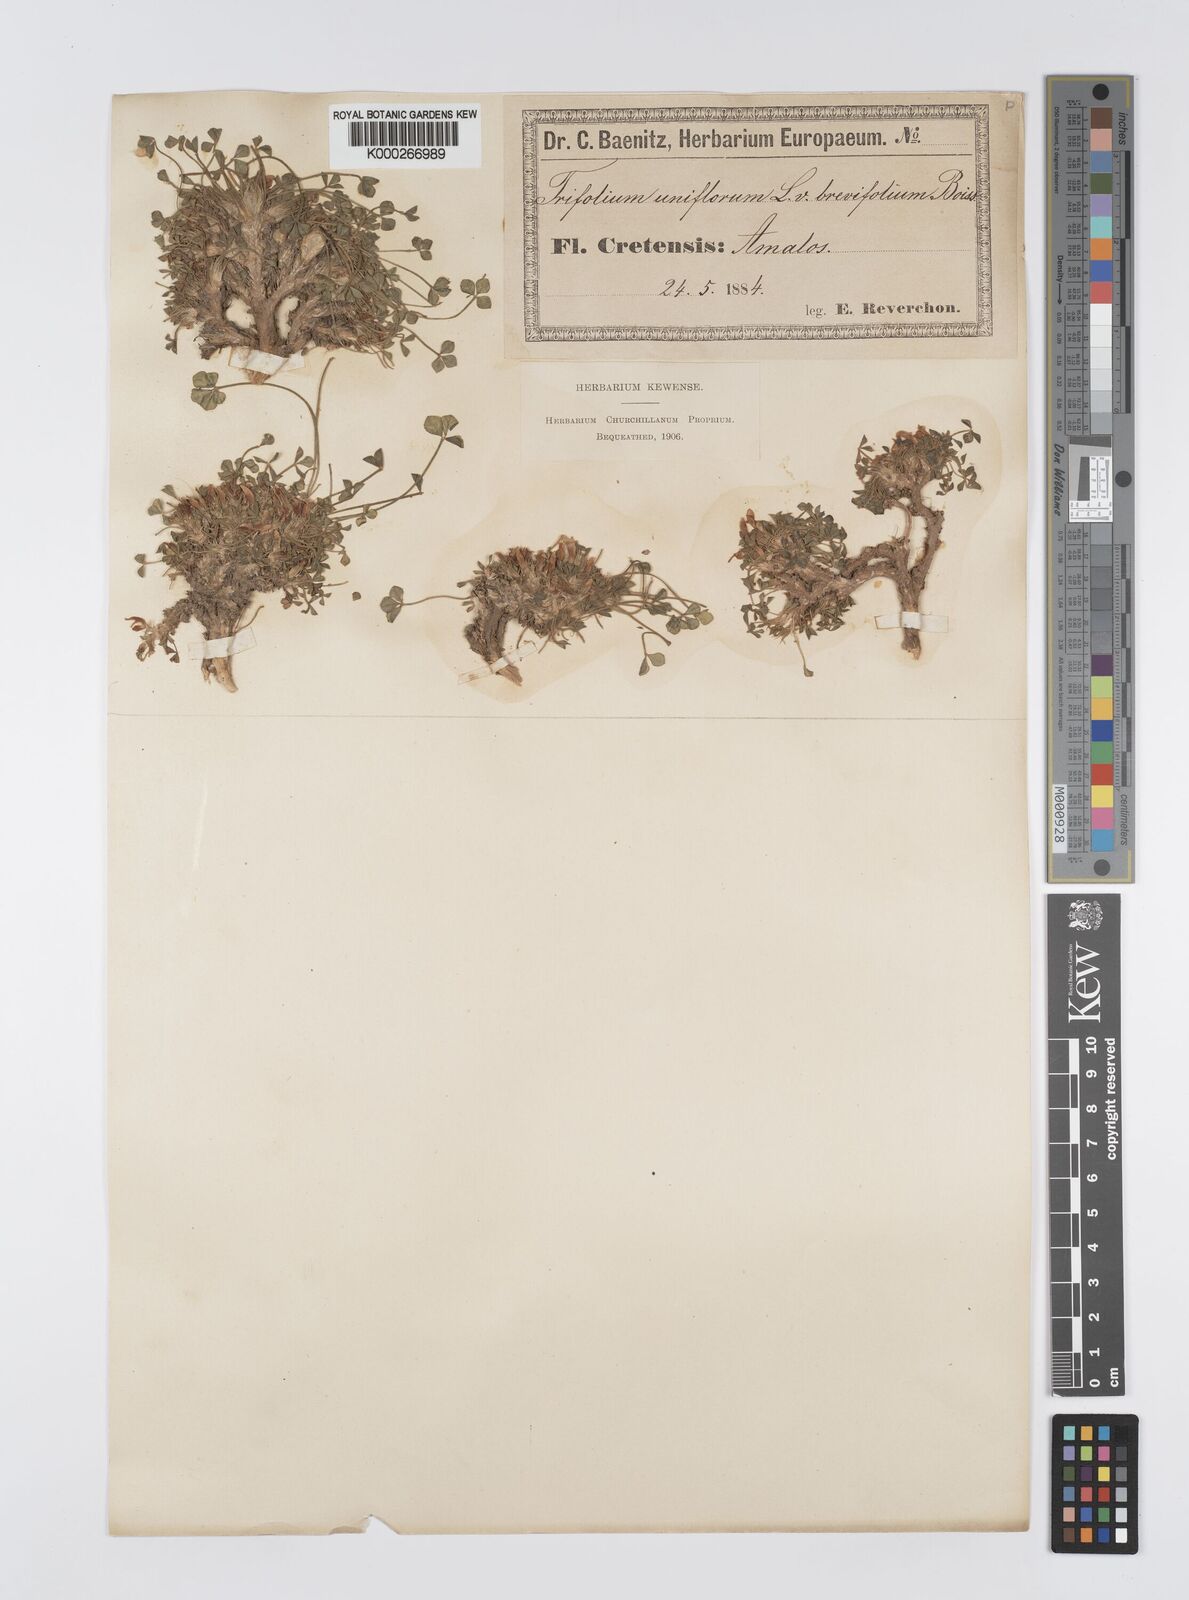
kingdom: Plantae
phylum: Tracheophyta
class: Magnoliopsida
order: Fabales
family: Fabaceae
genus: Trifolium
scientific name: Trifolium uniflorum
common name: One-flower clover
